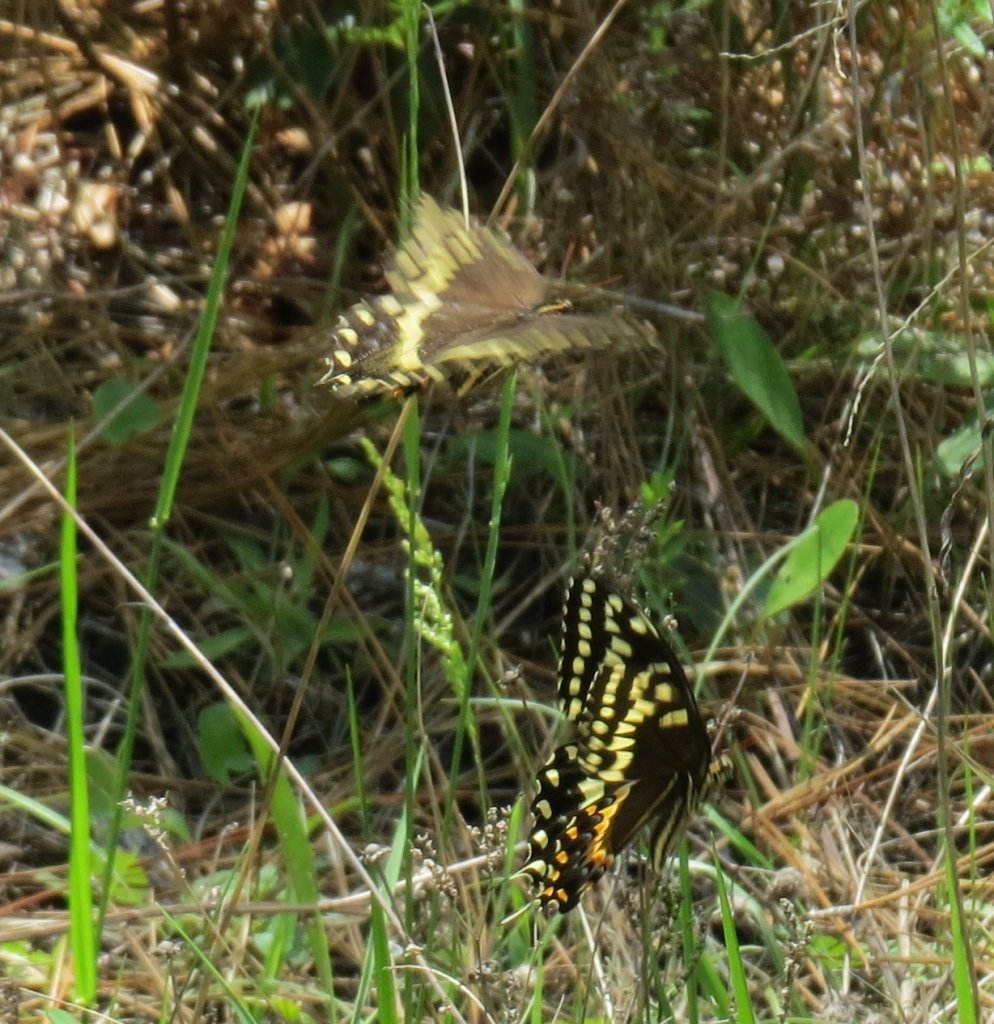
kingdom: Animalia
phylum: Arthropoda
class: Insecta
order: Lepidoptera
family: Papilionidae
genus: Pterourus
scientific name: Pterourus palamedes
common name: Palamedes Swallowtail
